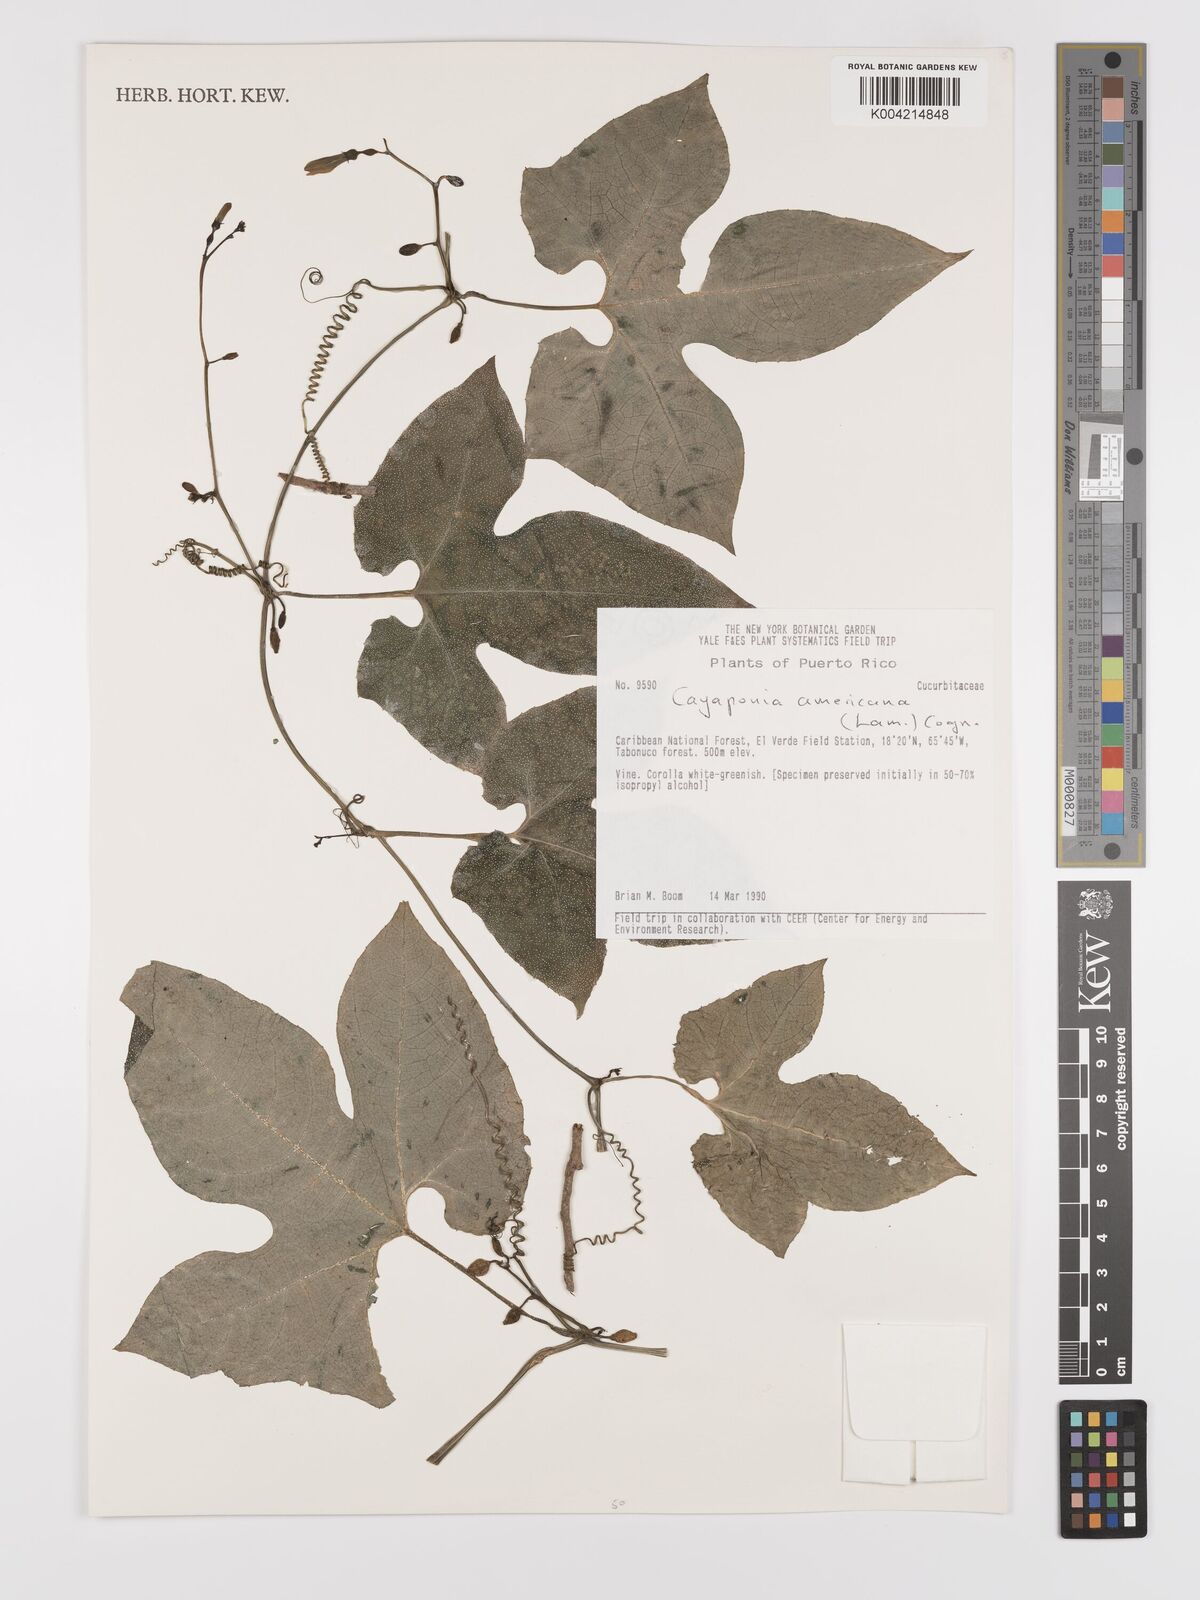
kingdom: Plantae
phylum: Tracheophyta
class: Magnoliopsida
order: Cucurbitales
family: Cucurbitaceae
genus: Cayaponia
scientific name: Cayaponia americana
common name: American melonleaf
